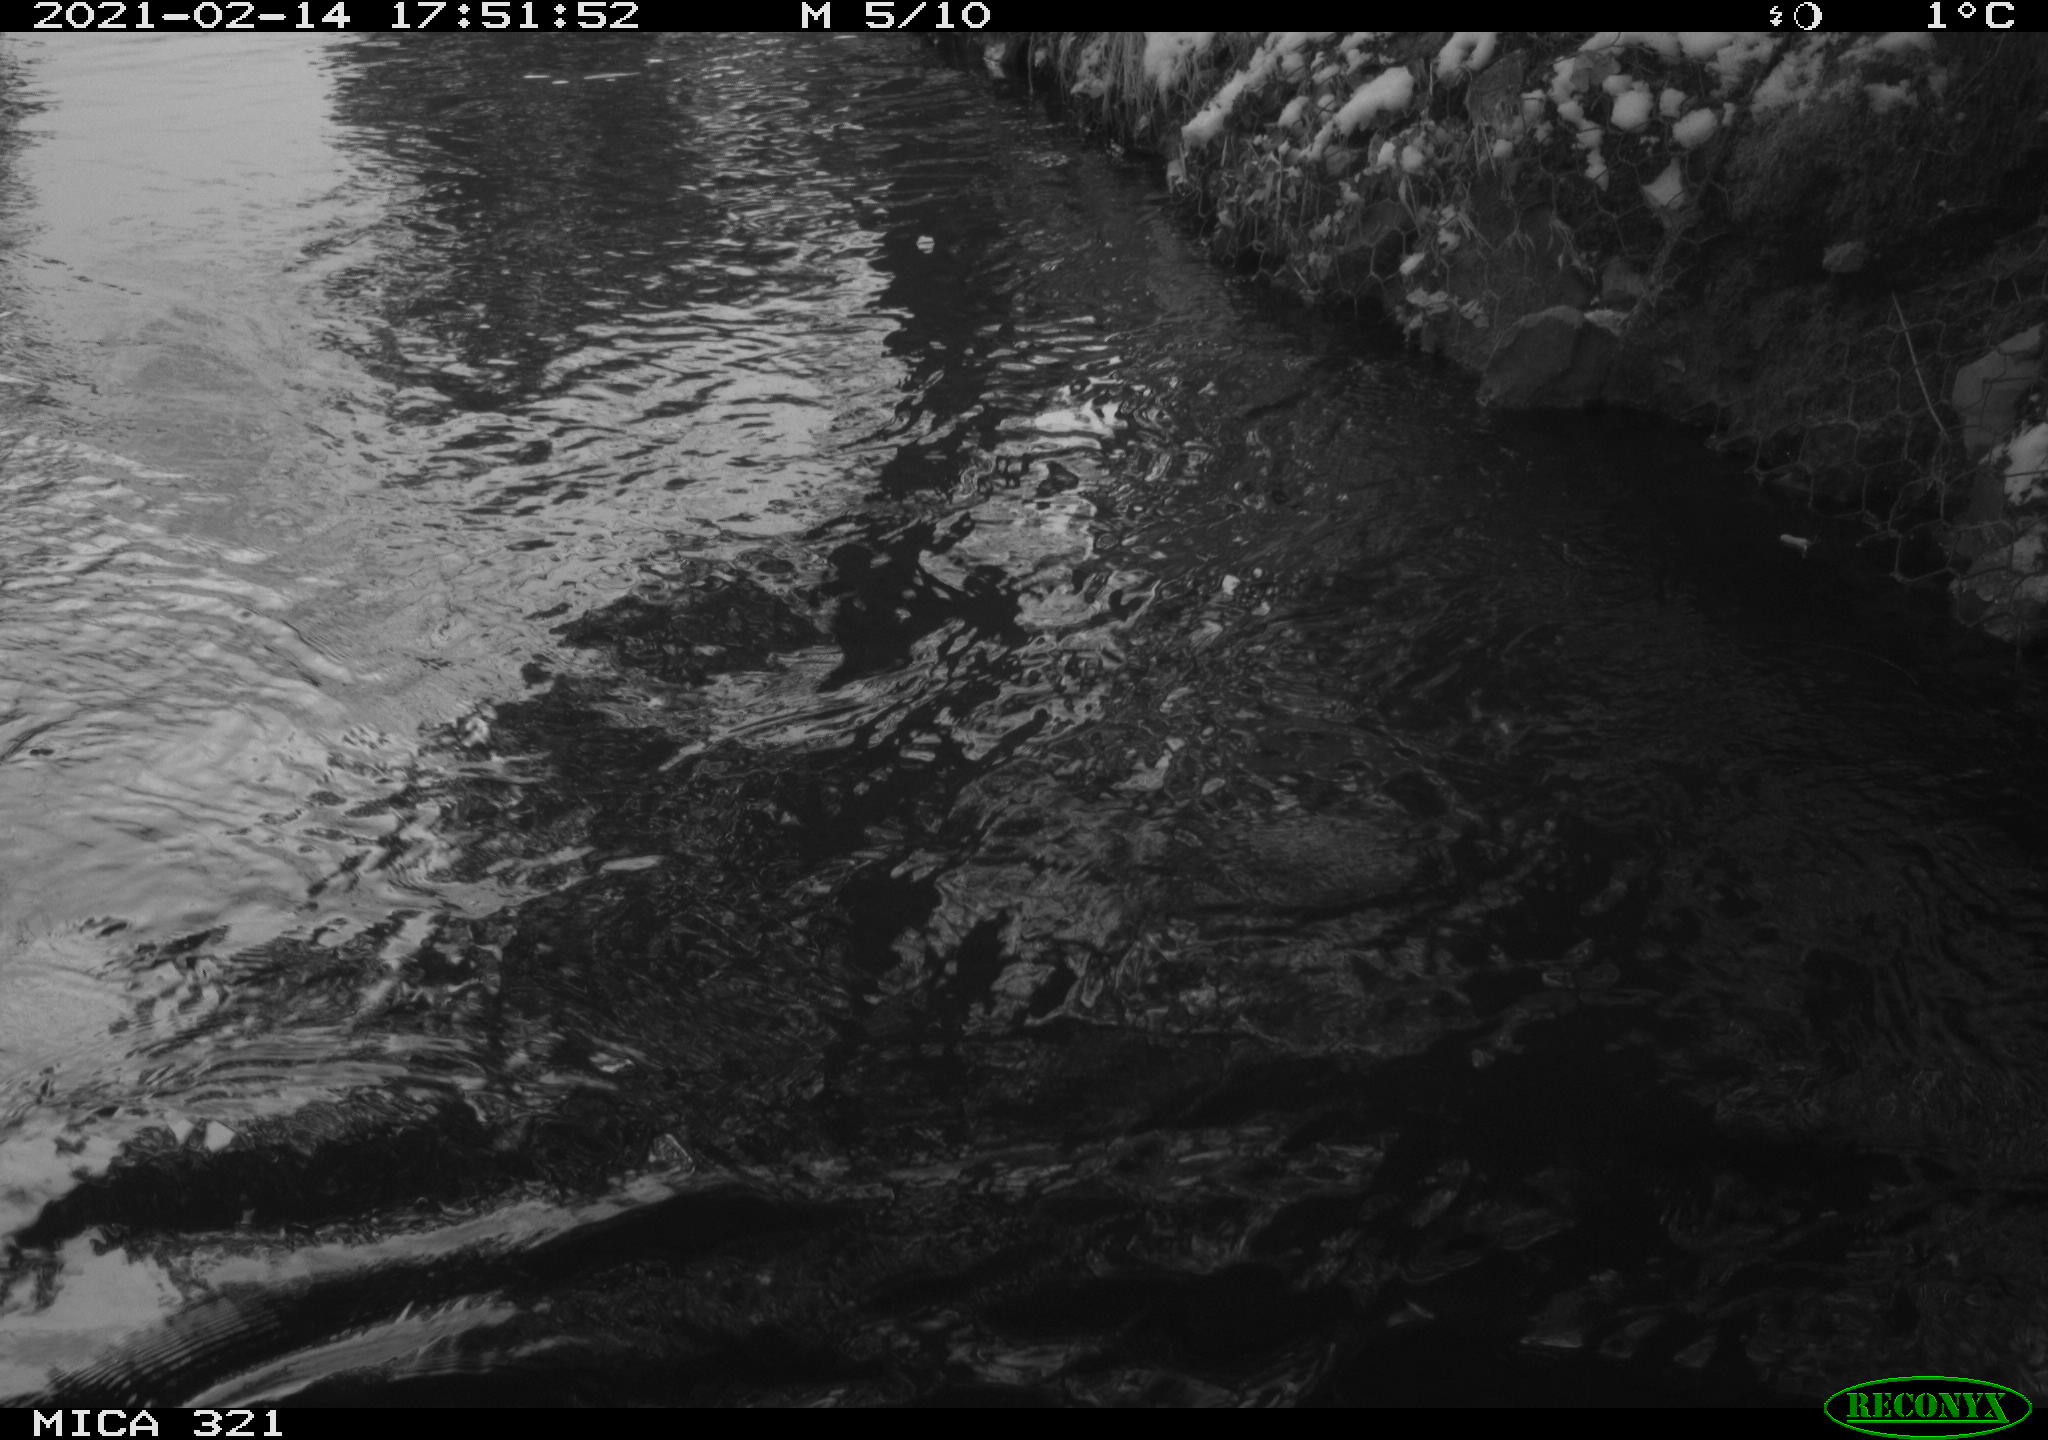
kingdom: Animalia
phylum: Chordata
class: Aves
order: Suliformes
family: Phalacrocoracidae
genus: Phalacrocorax
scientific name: Phalacrocorax carbo
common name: Great cormorant
